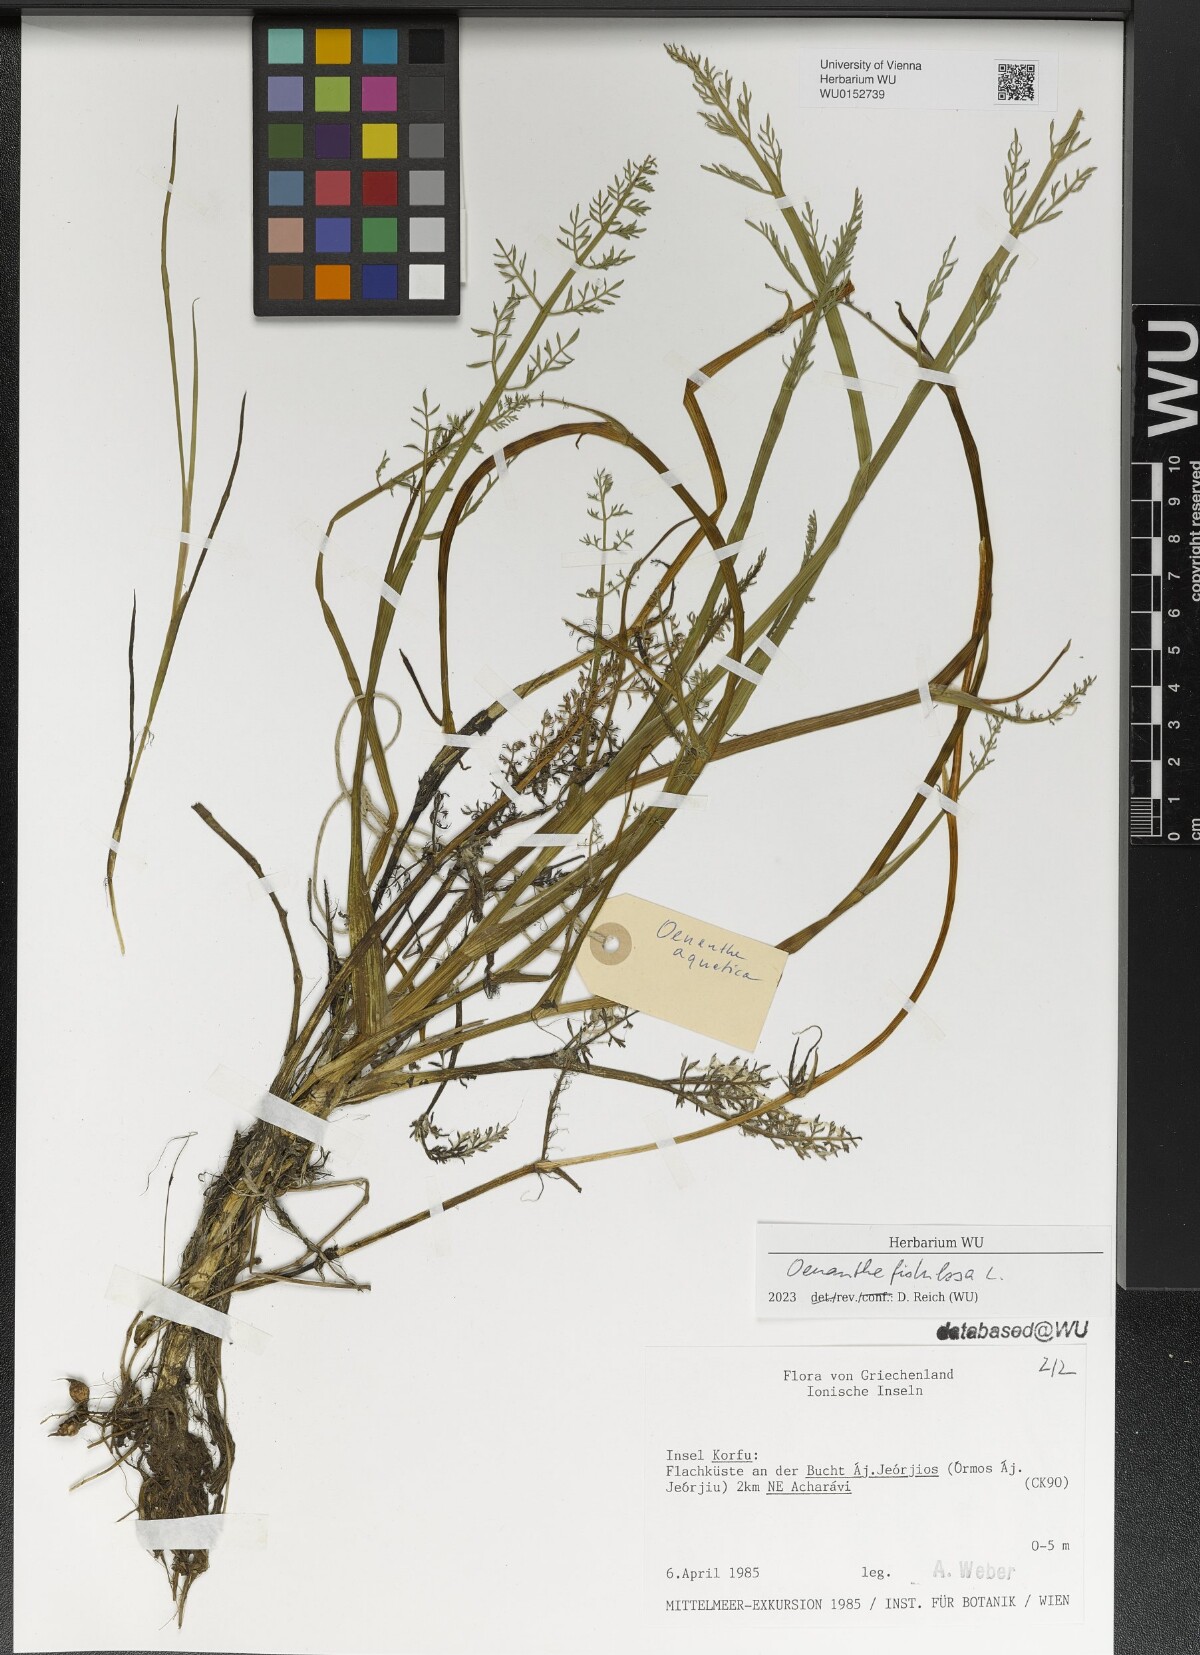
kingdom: Plantae
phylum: Tracheophyta
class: Magnoliopsida
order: Apiales
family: Apiaceae
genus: Oenanthe
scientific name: Oenanthe fistulosa
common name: Tubular water-dropwort
